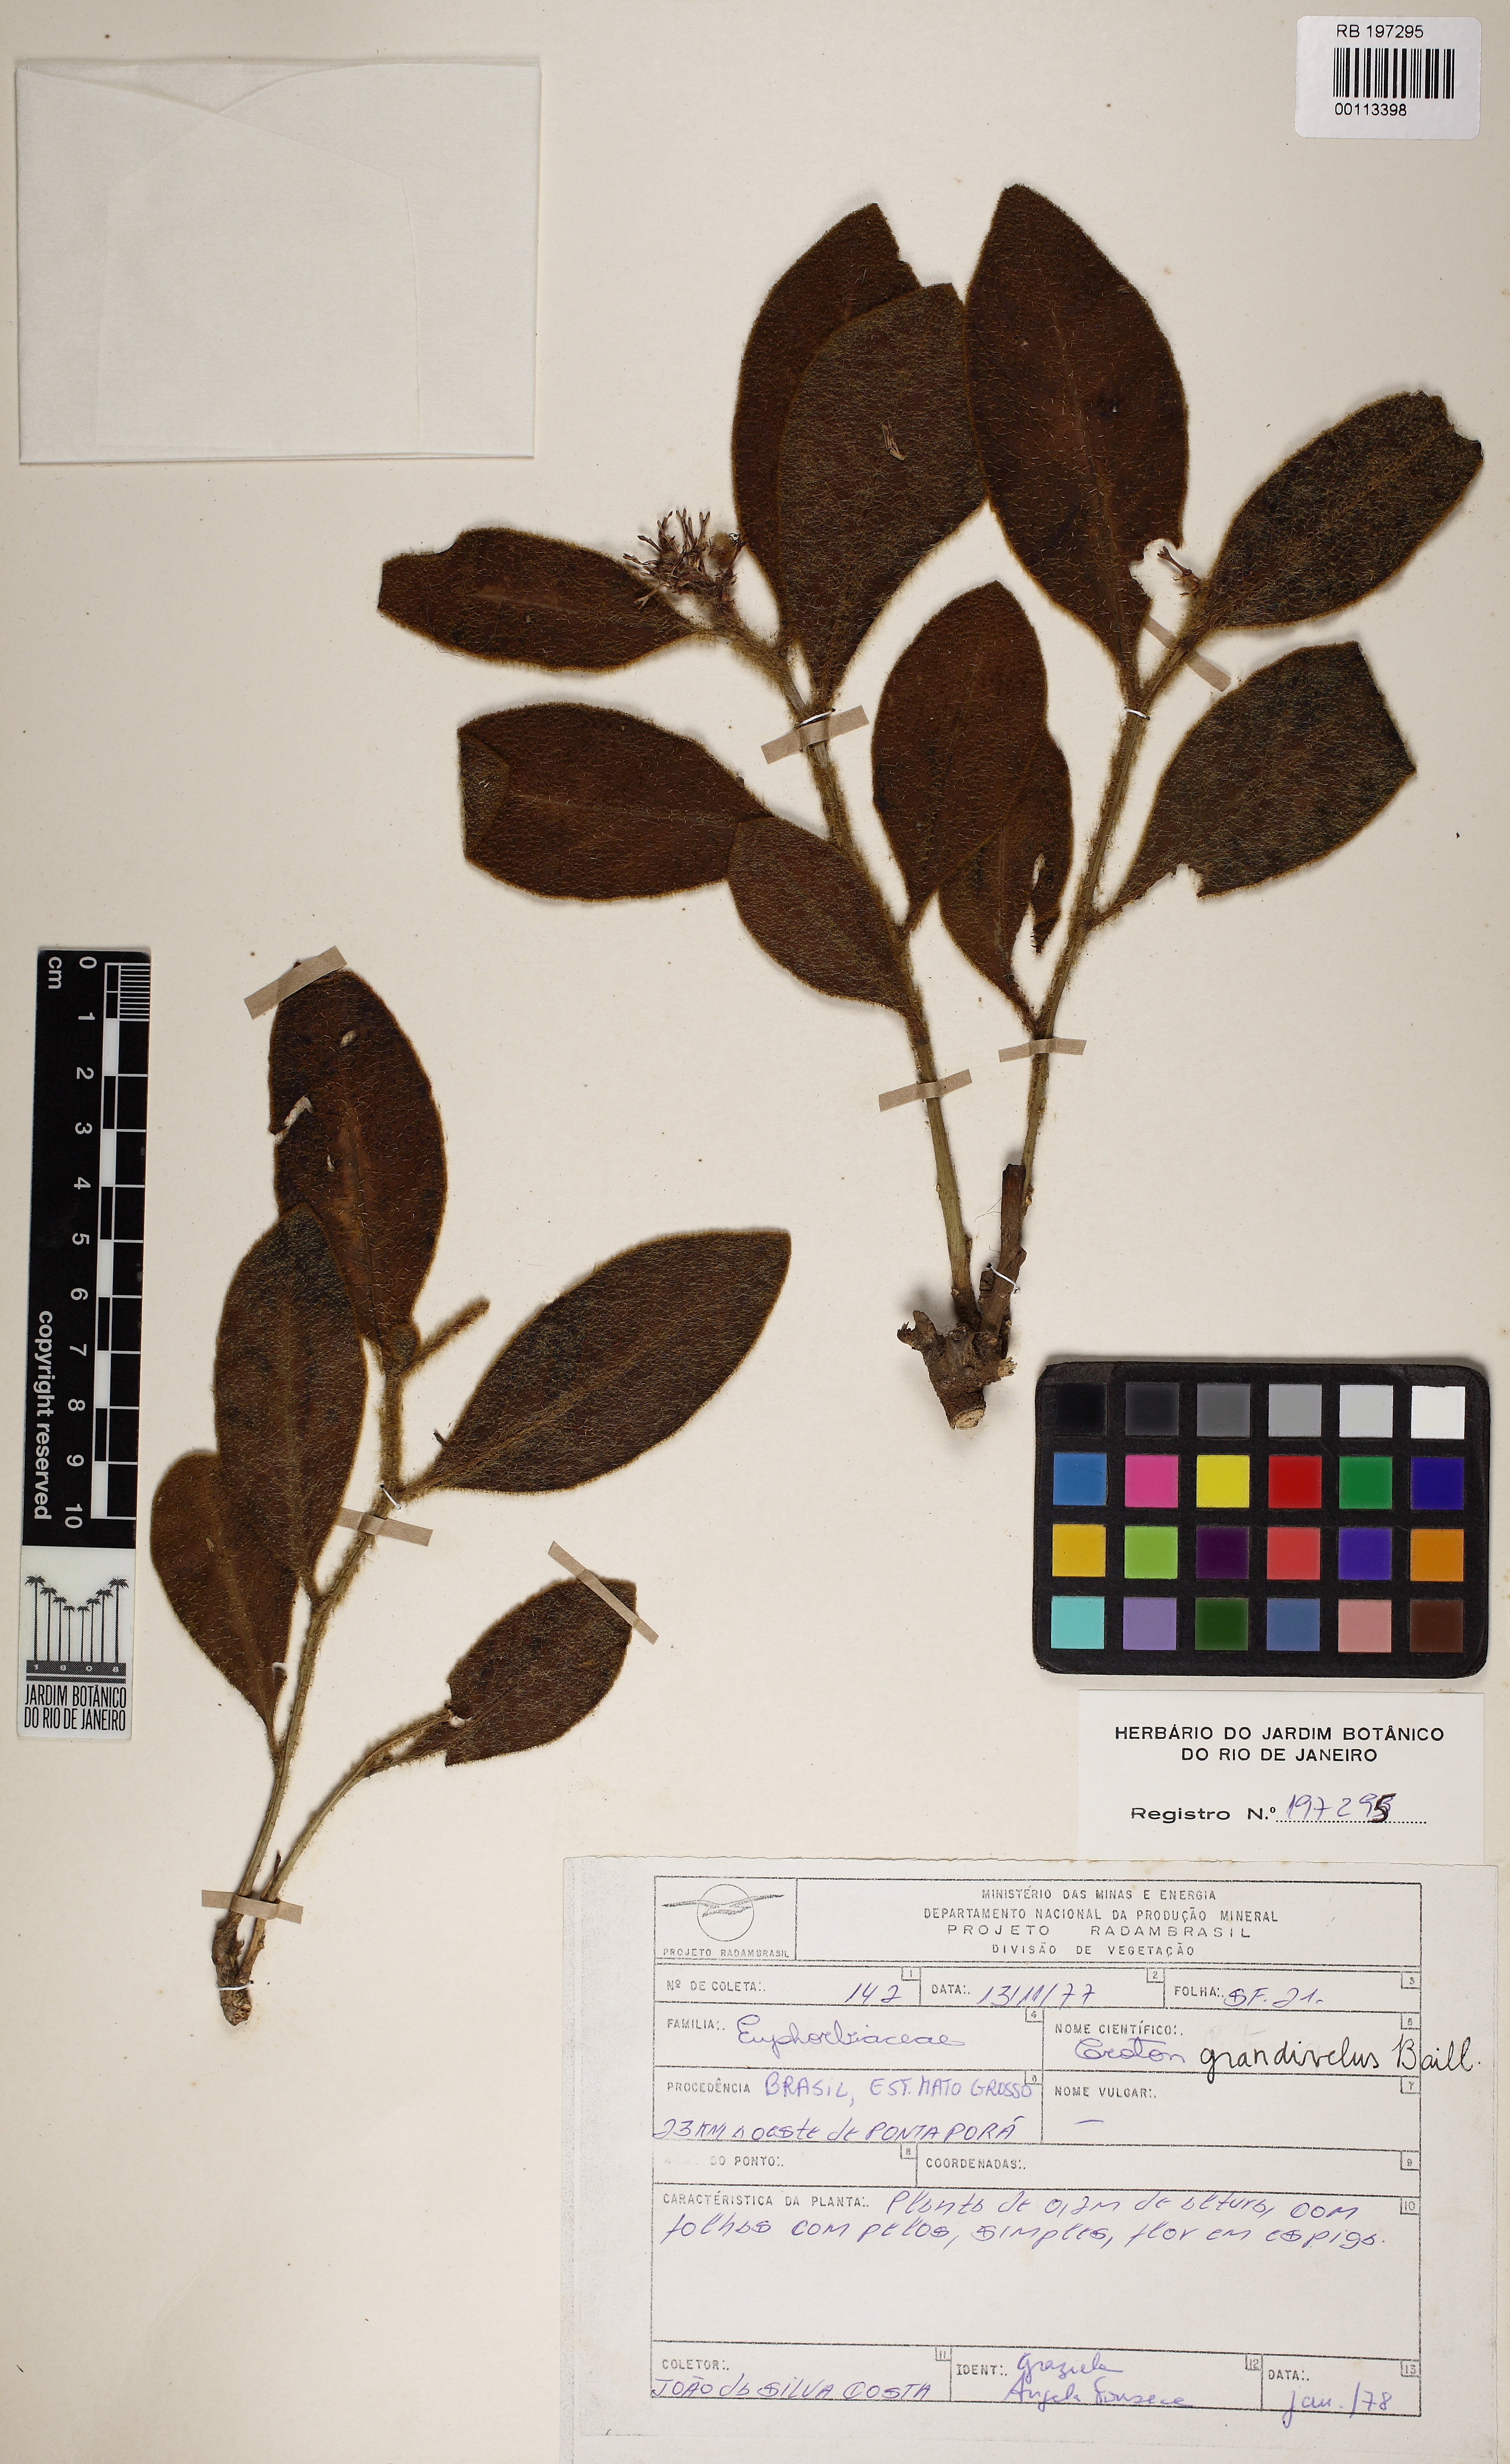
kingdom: Plantae
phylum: Tracheophyta
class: Magnoliopsida
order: Malpighiales
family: Euphorbiaceae
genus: Croton
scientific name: Croton
